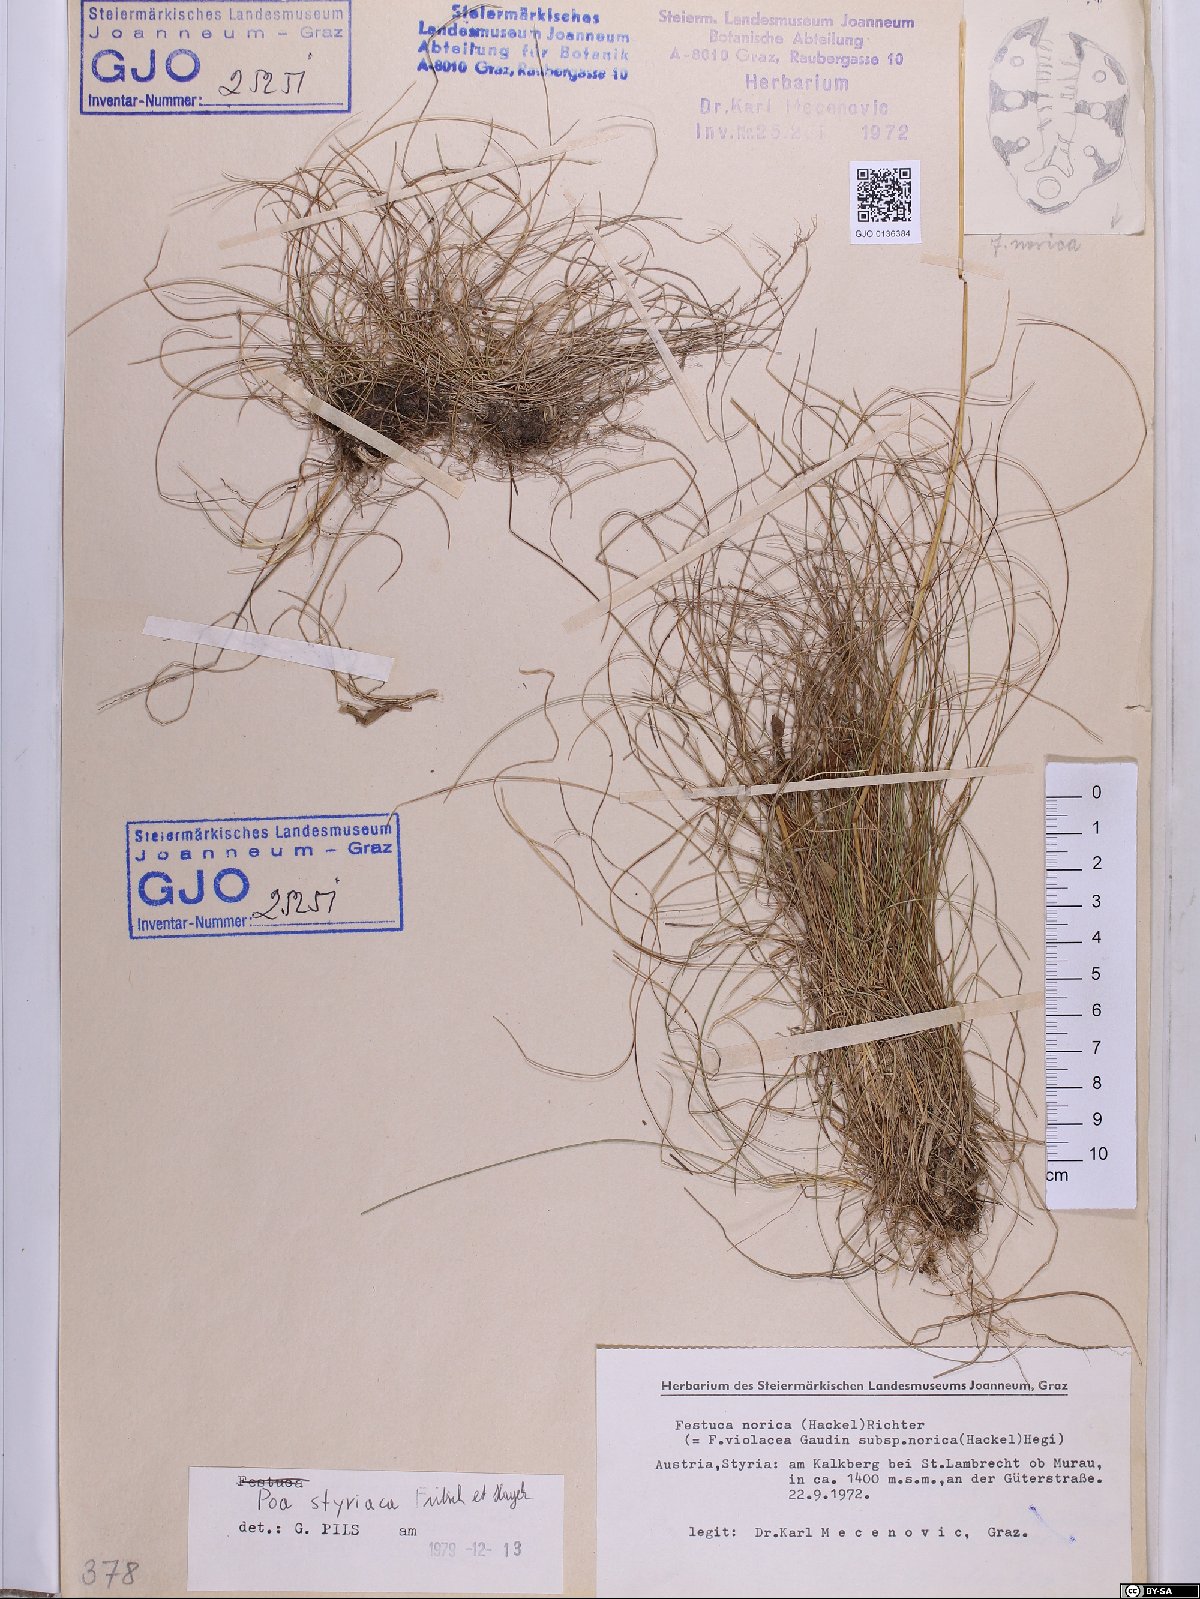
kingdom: Plantae
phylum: Tracheophyta
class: Liliopsida
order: Poales
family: Poaceae
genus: Poa
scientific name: Poa stiriaca
